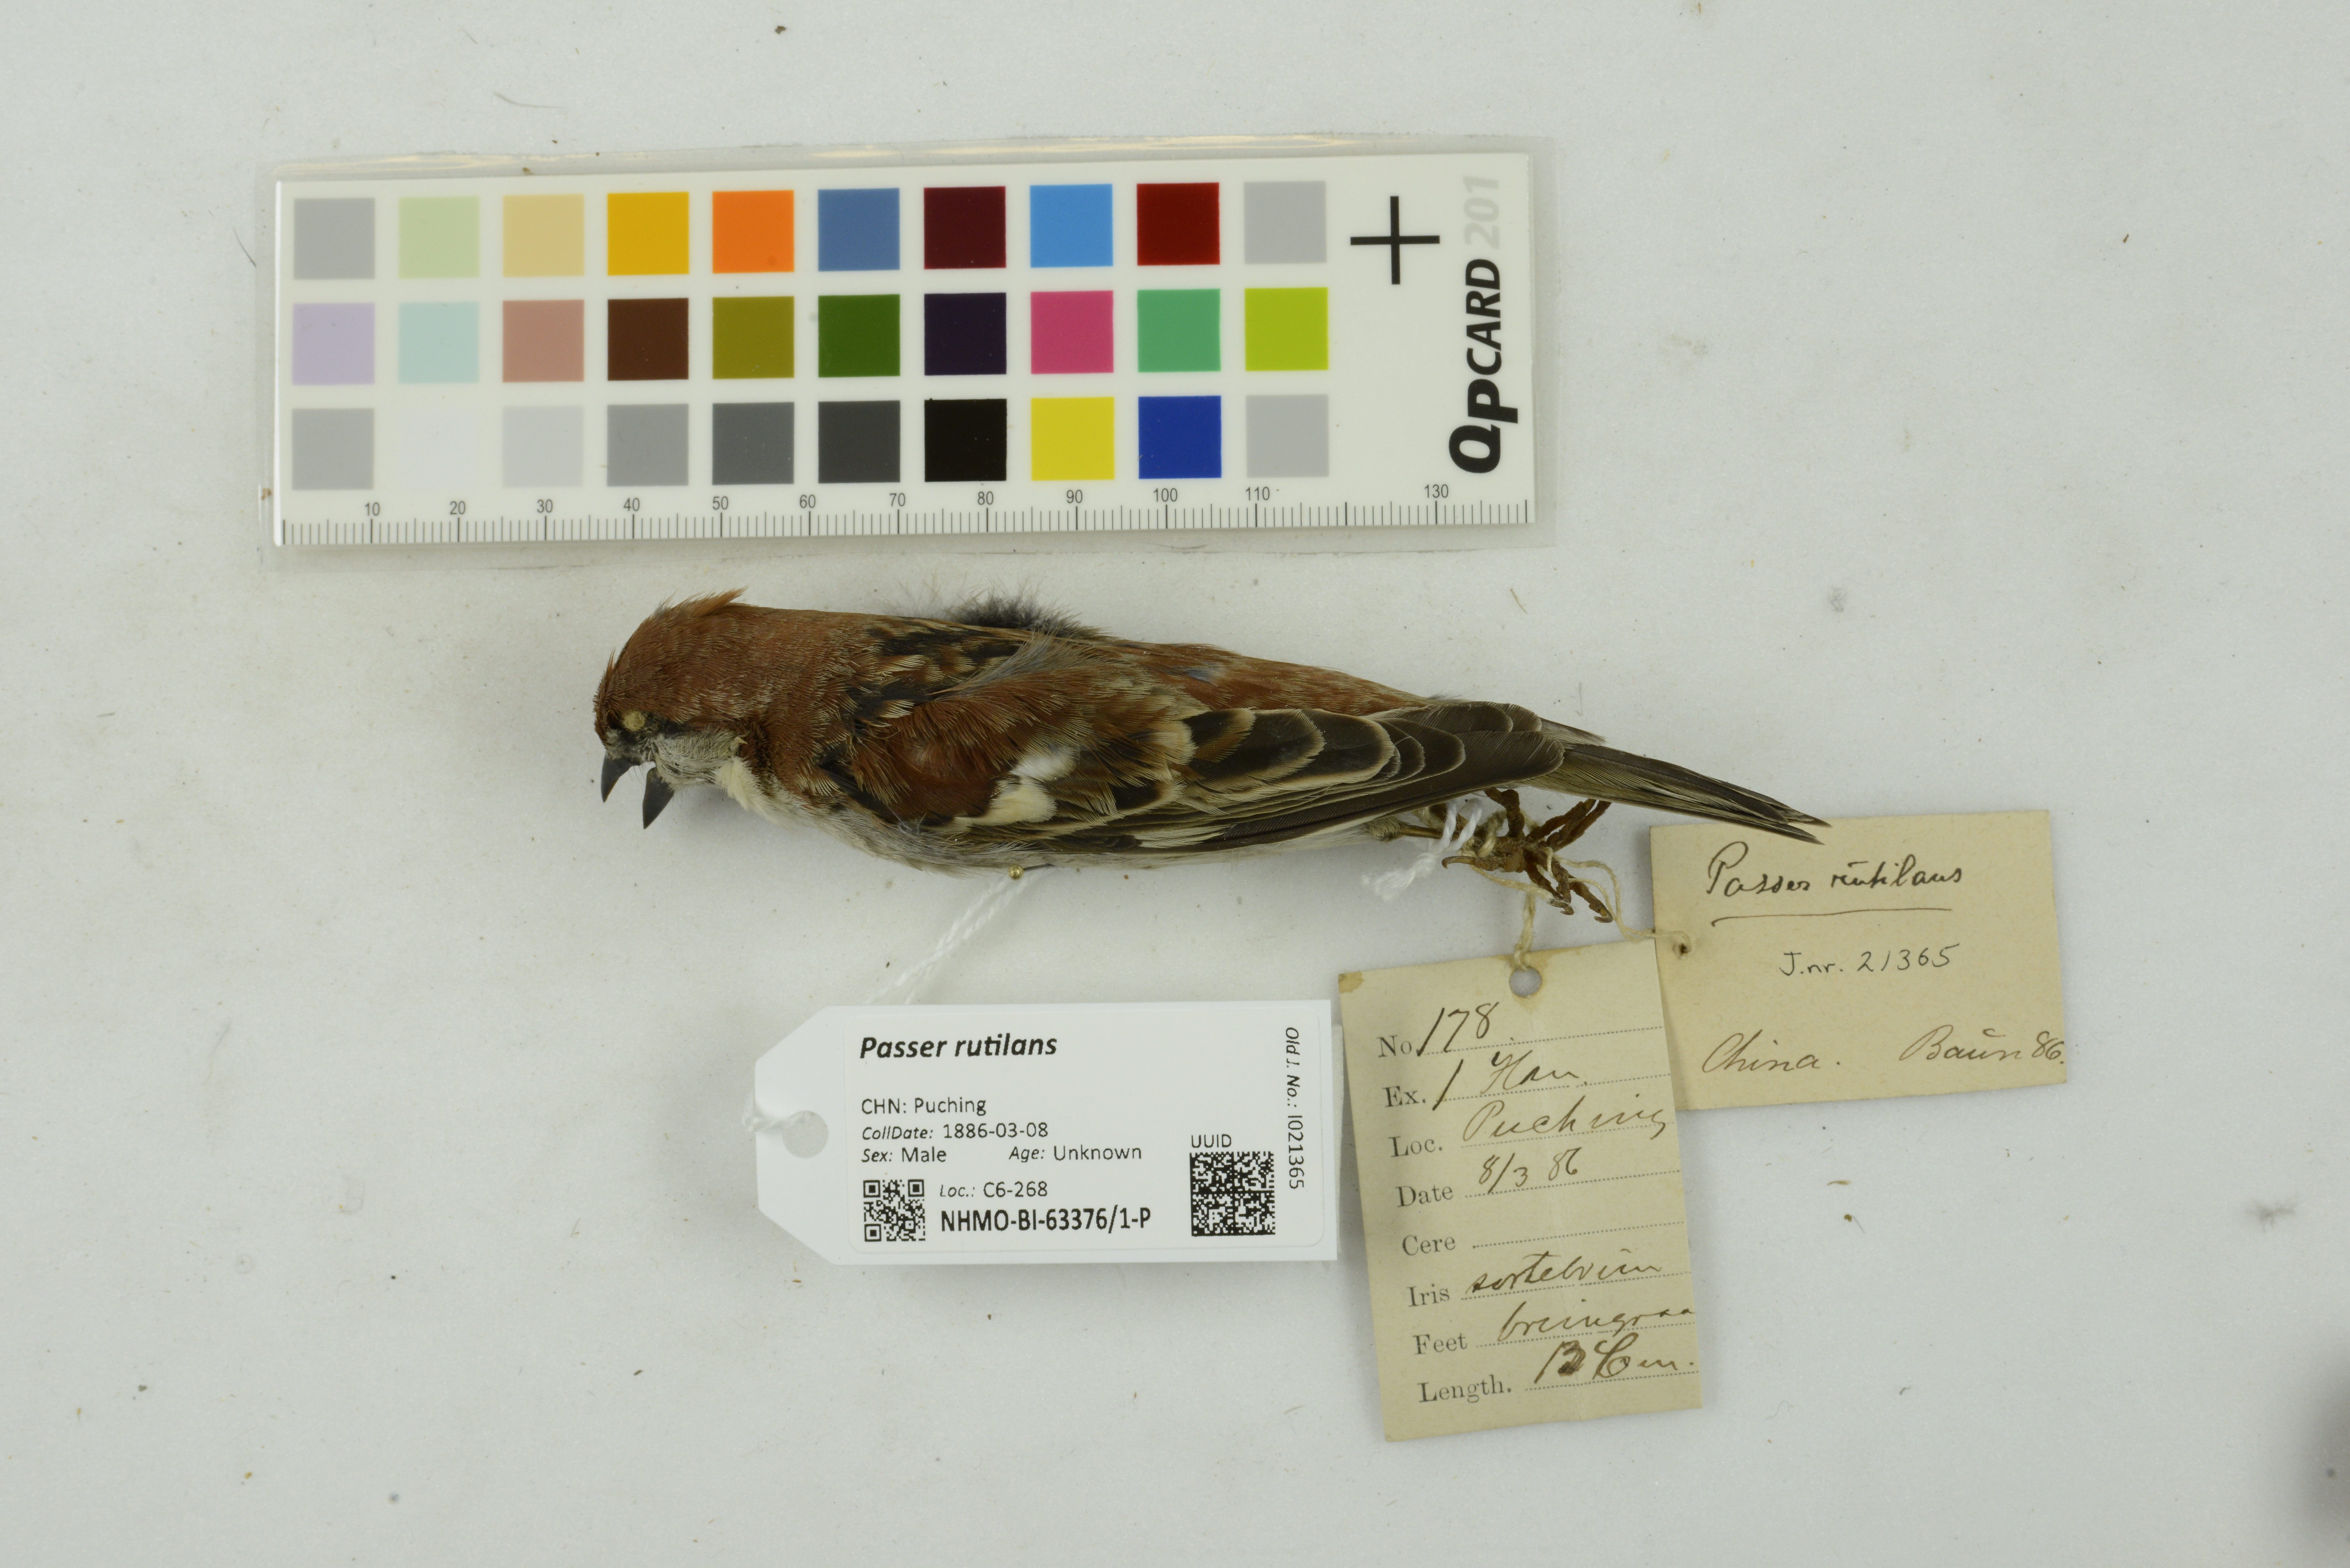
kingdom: Animalia
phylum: Chordata
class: Aves
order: Passeriformes
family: Passeridae
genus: Passer
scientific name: Passer rutilans
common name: Russet sparrow
